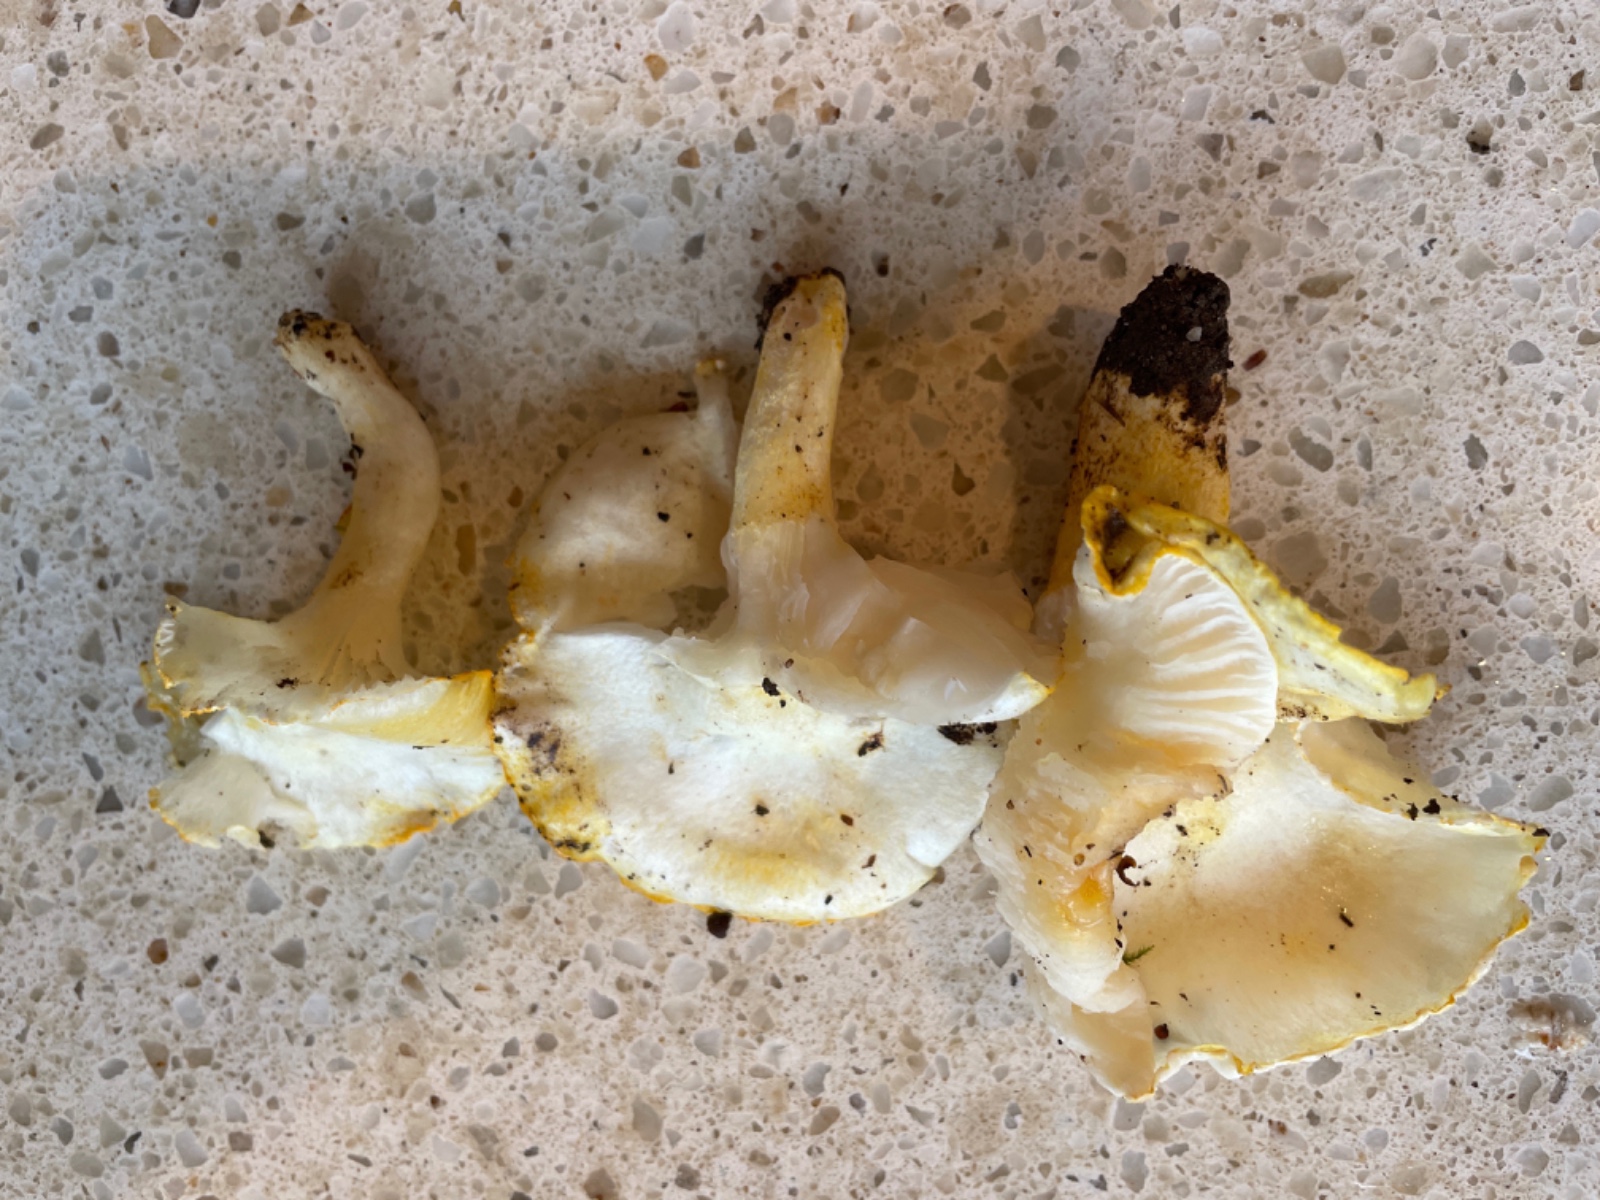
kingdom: Fungi
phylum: Basidiomycota
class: Agaricomycetes
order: Agaricales
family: Hygrophoraceae
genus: Hygrophorus
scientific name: Hygrophorus chrysodon
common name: gulfnugget sneglehat
